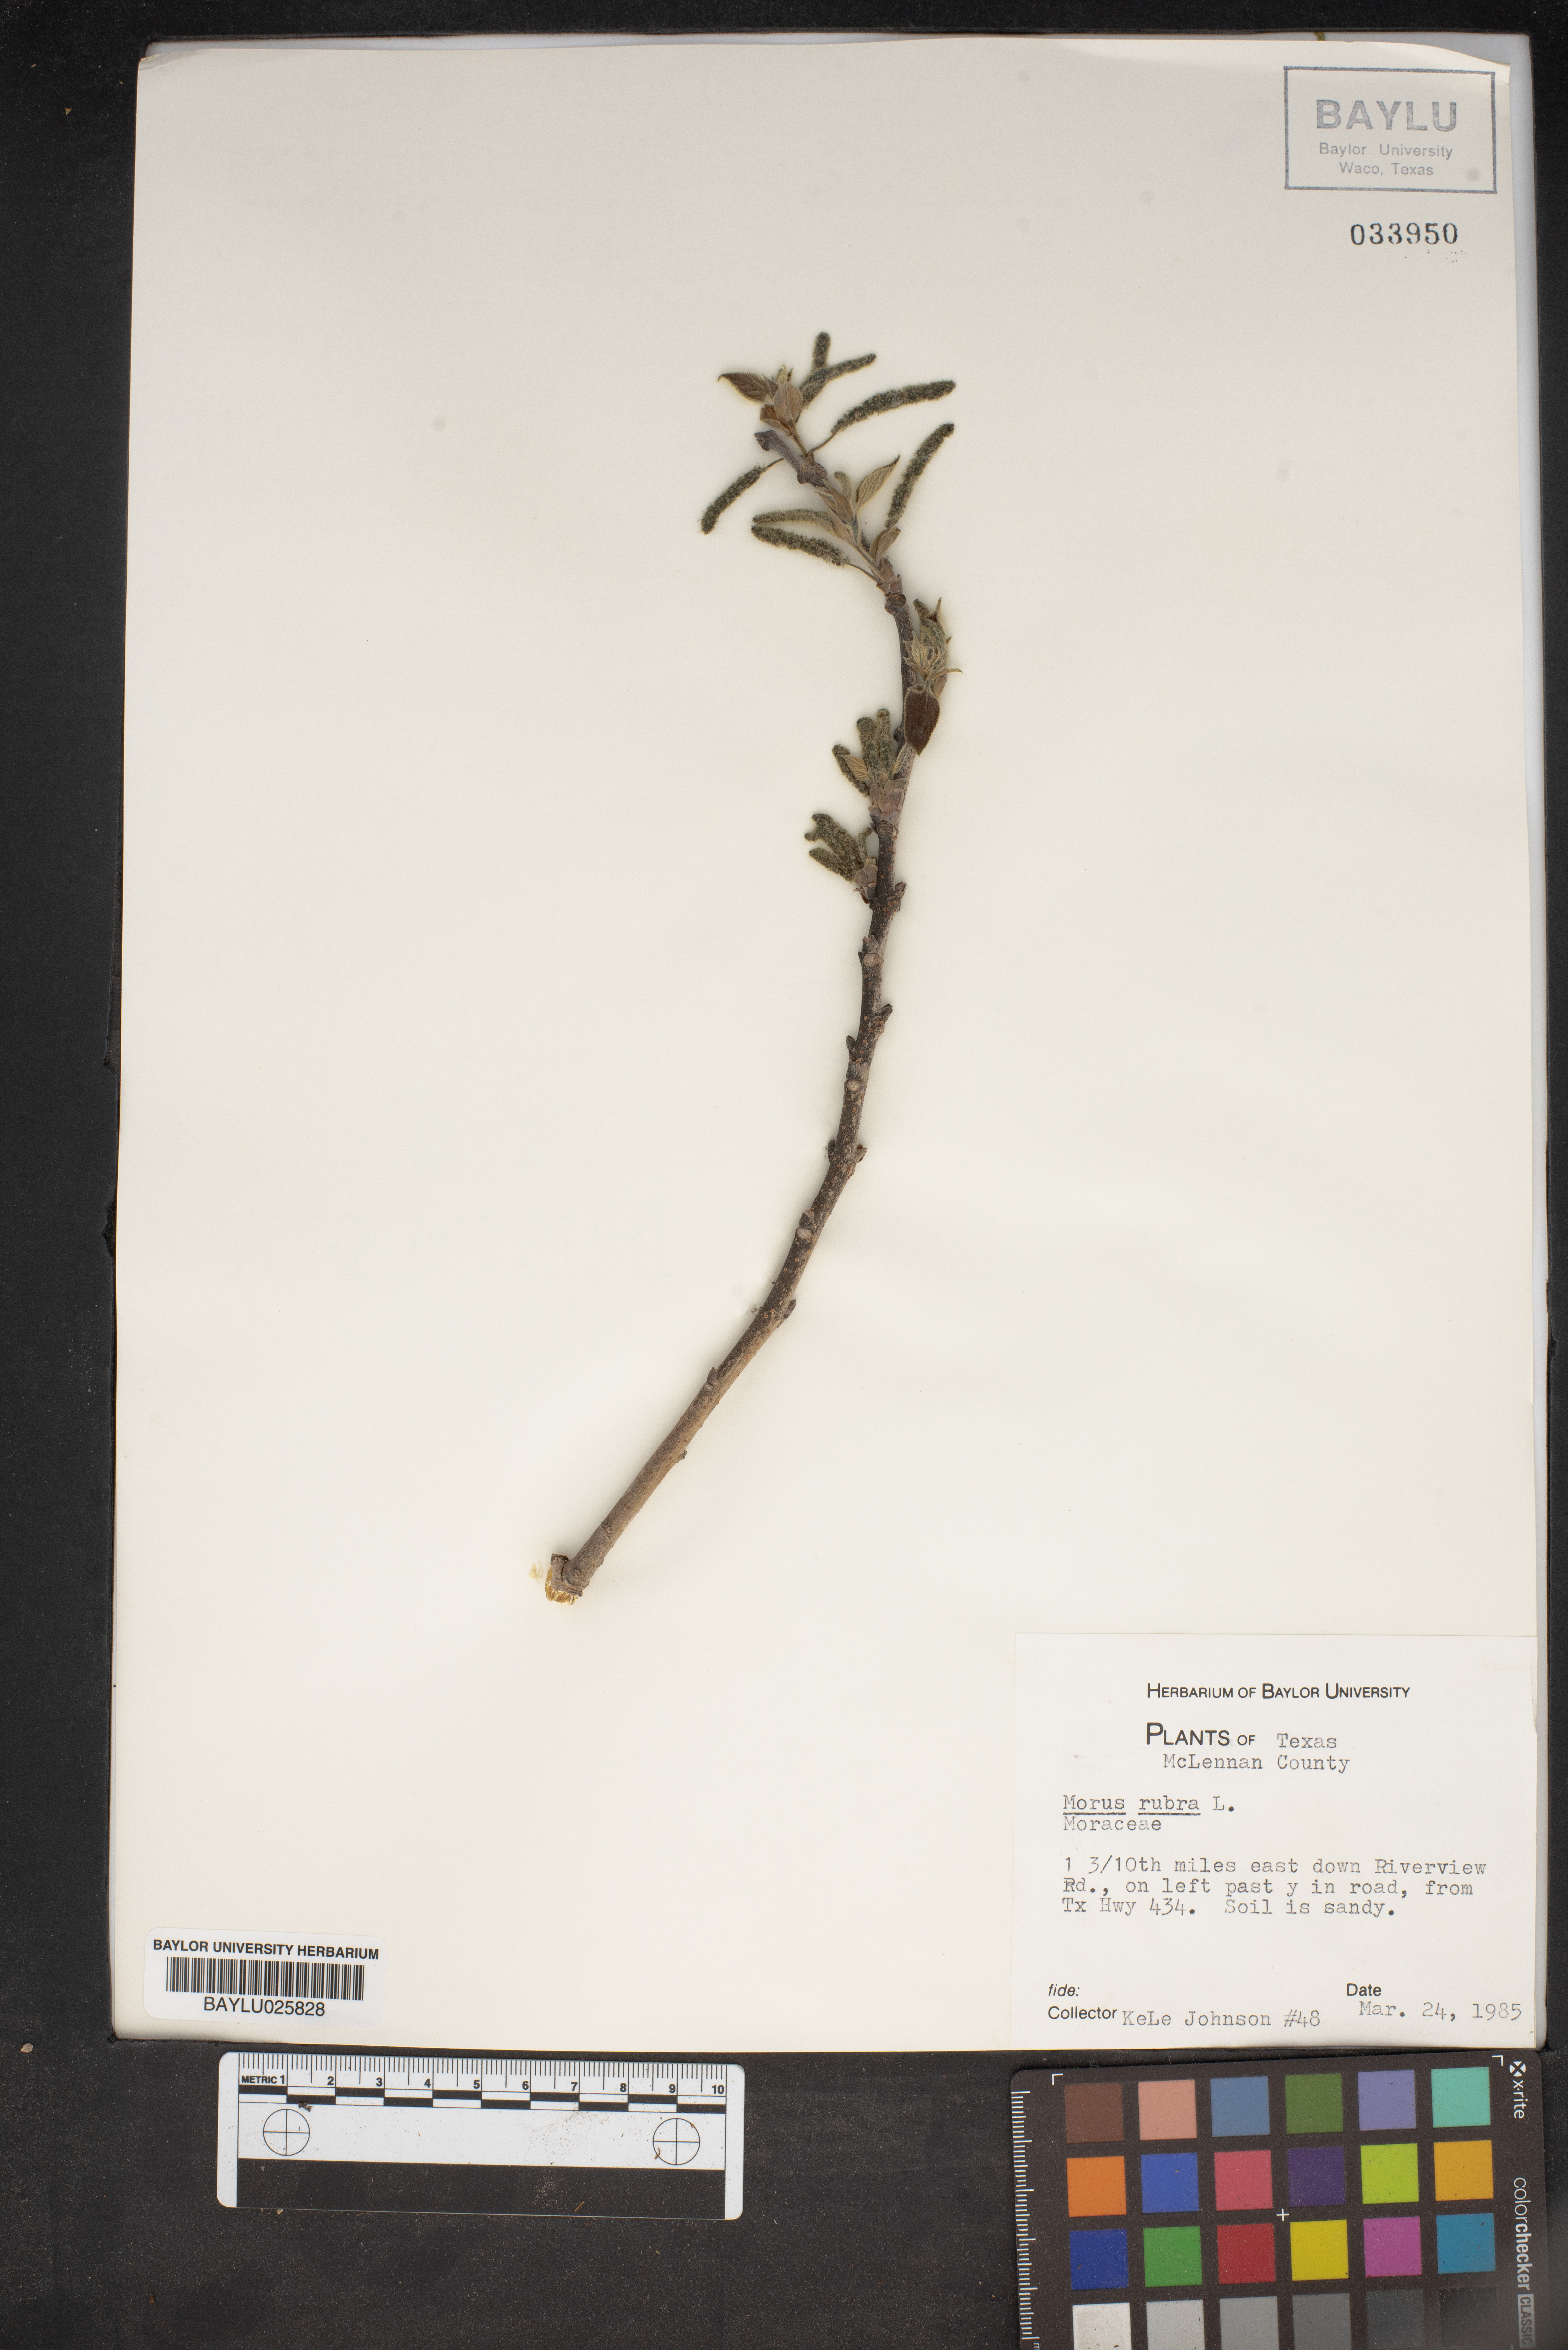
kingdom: Plantae
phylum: Tracheophyta
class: Magnoliopsida
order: Rosales
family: Moraceae
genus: Morus
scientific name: Morus rubra
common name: Red mulberry
